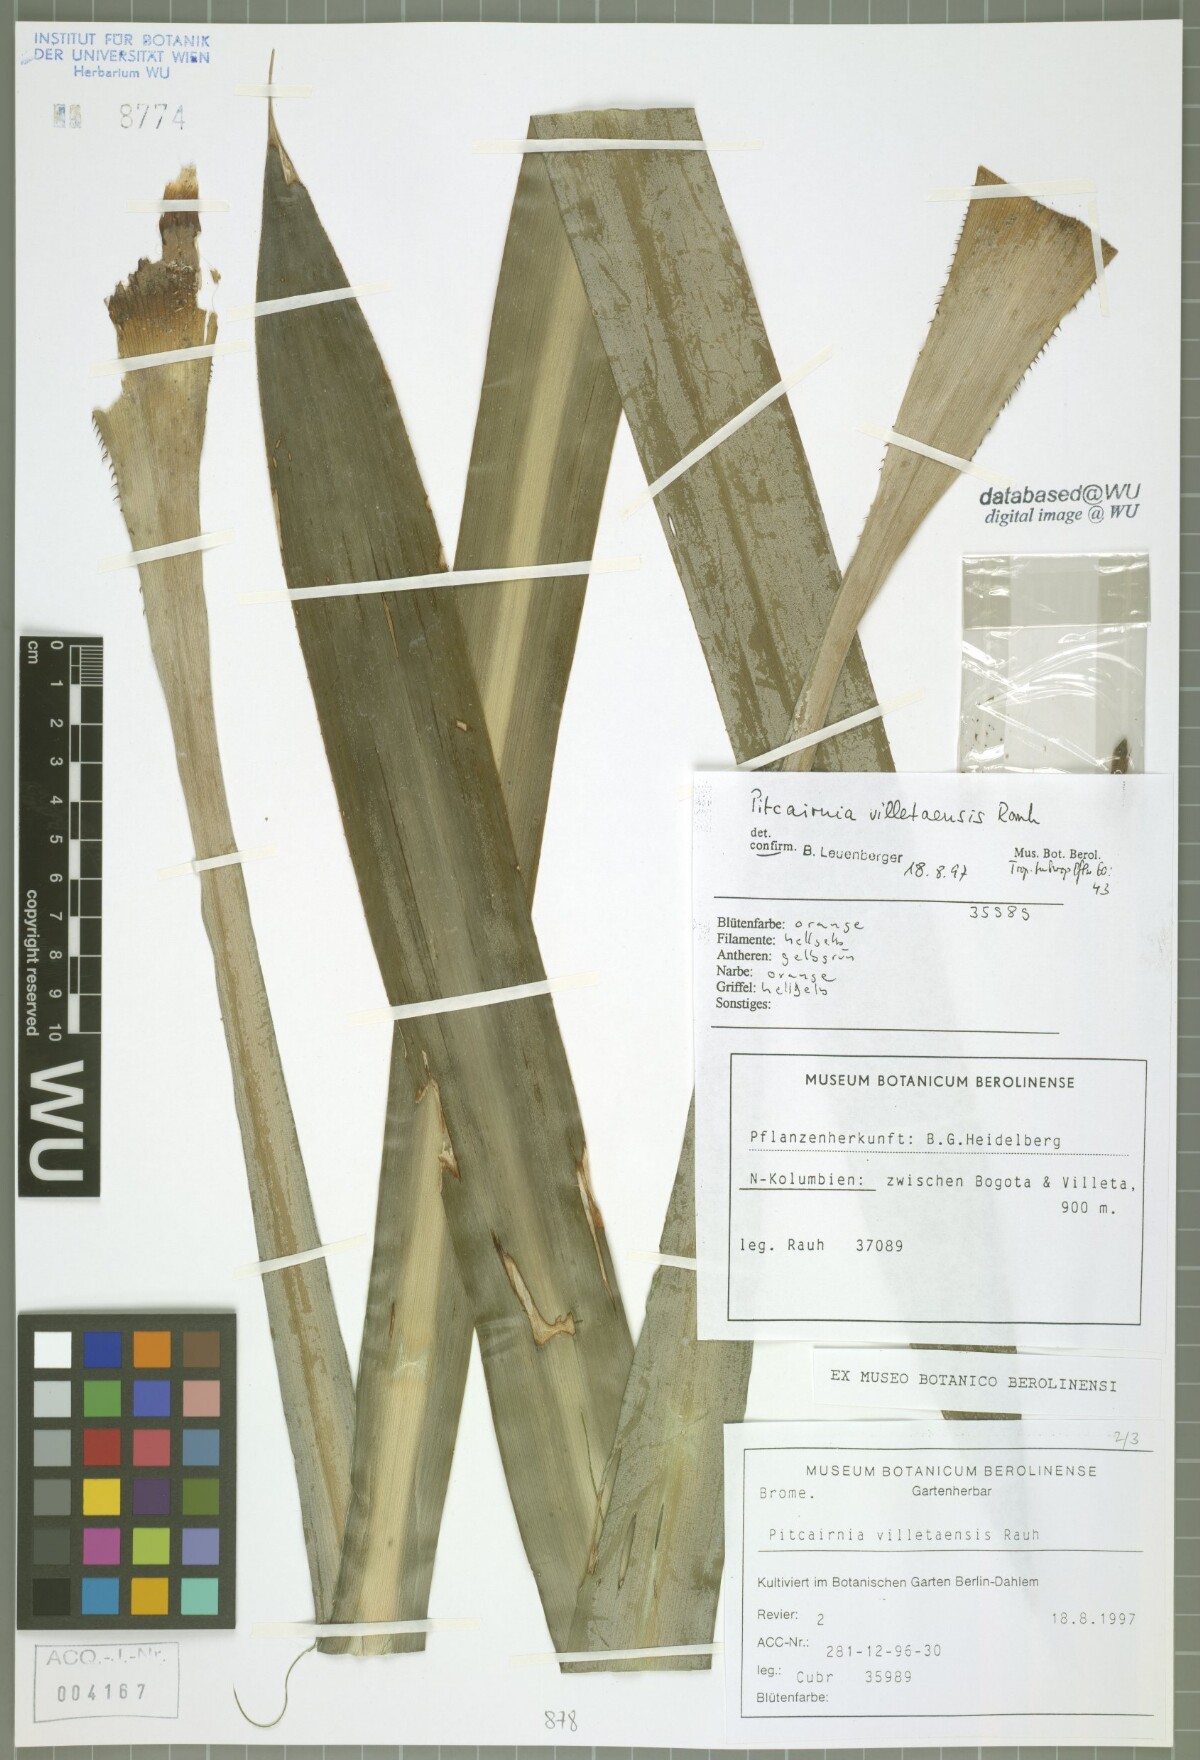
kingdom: Plantae
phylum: Tracheophyta
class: Liliopsida
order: Poales
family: Bromeliaceae
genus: Pitcairnia
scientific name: Pitcairnia villetaensis
